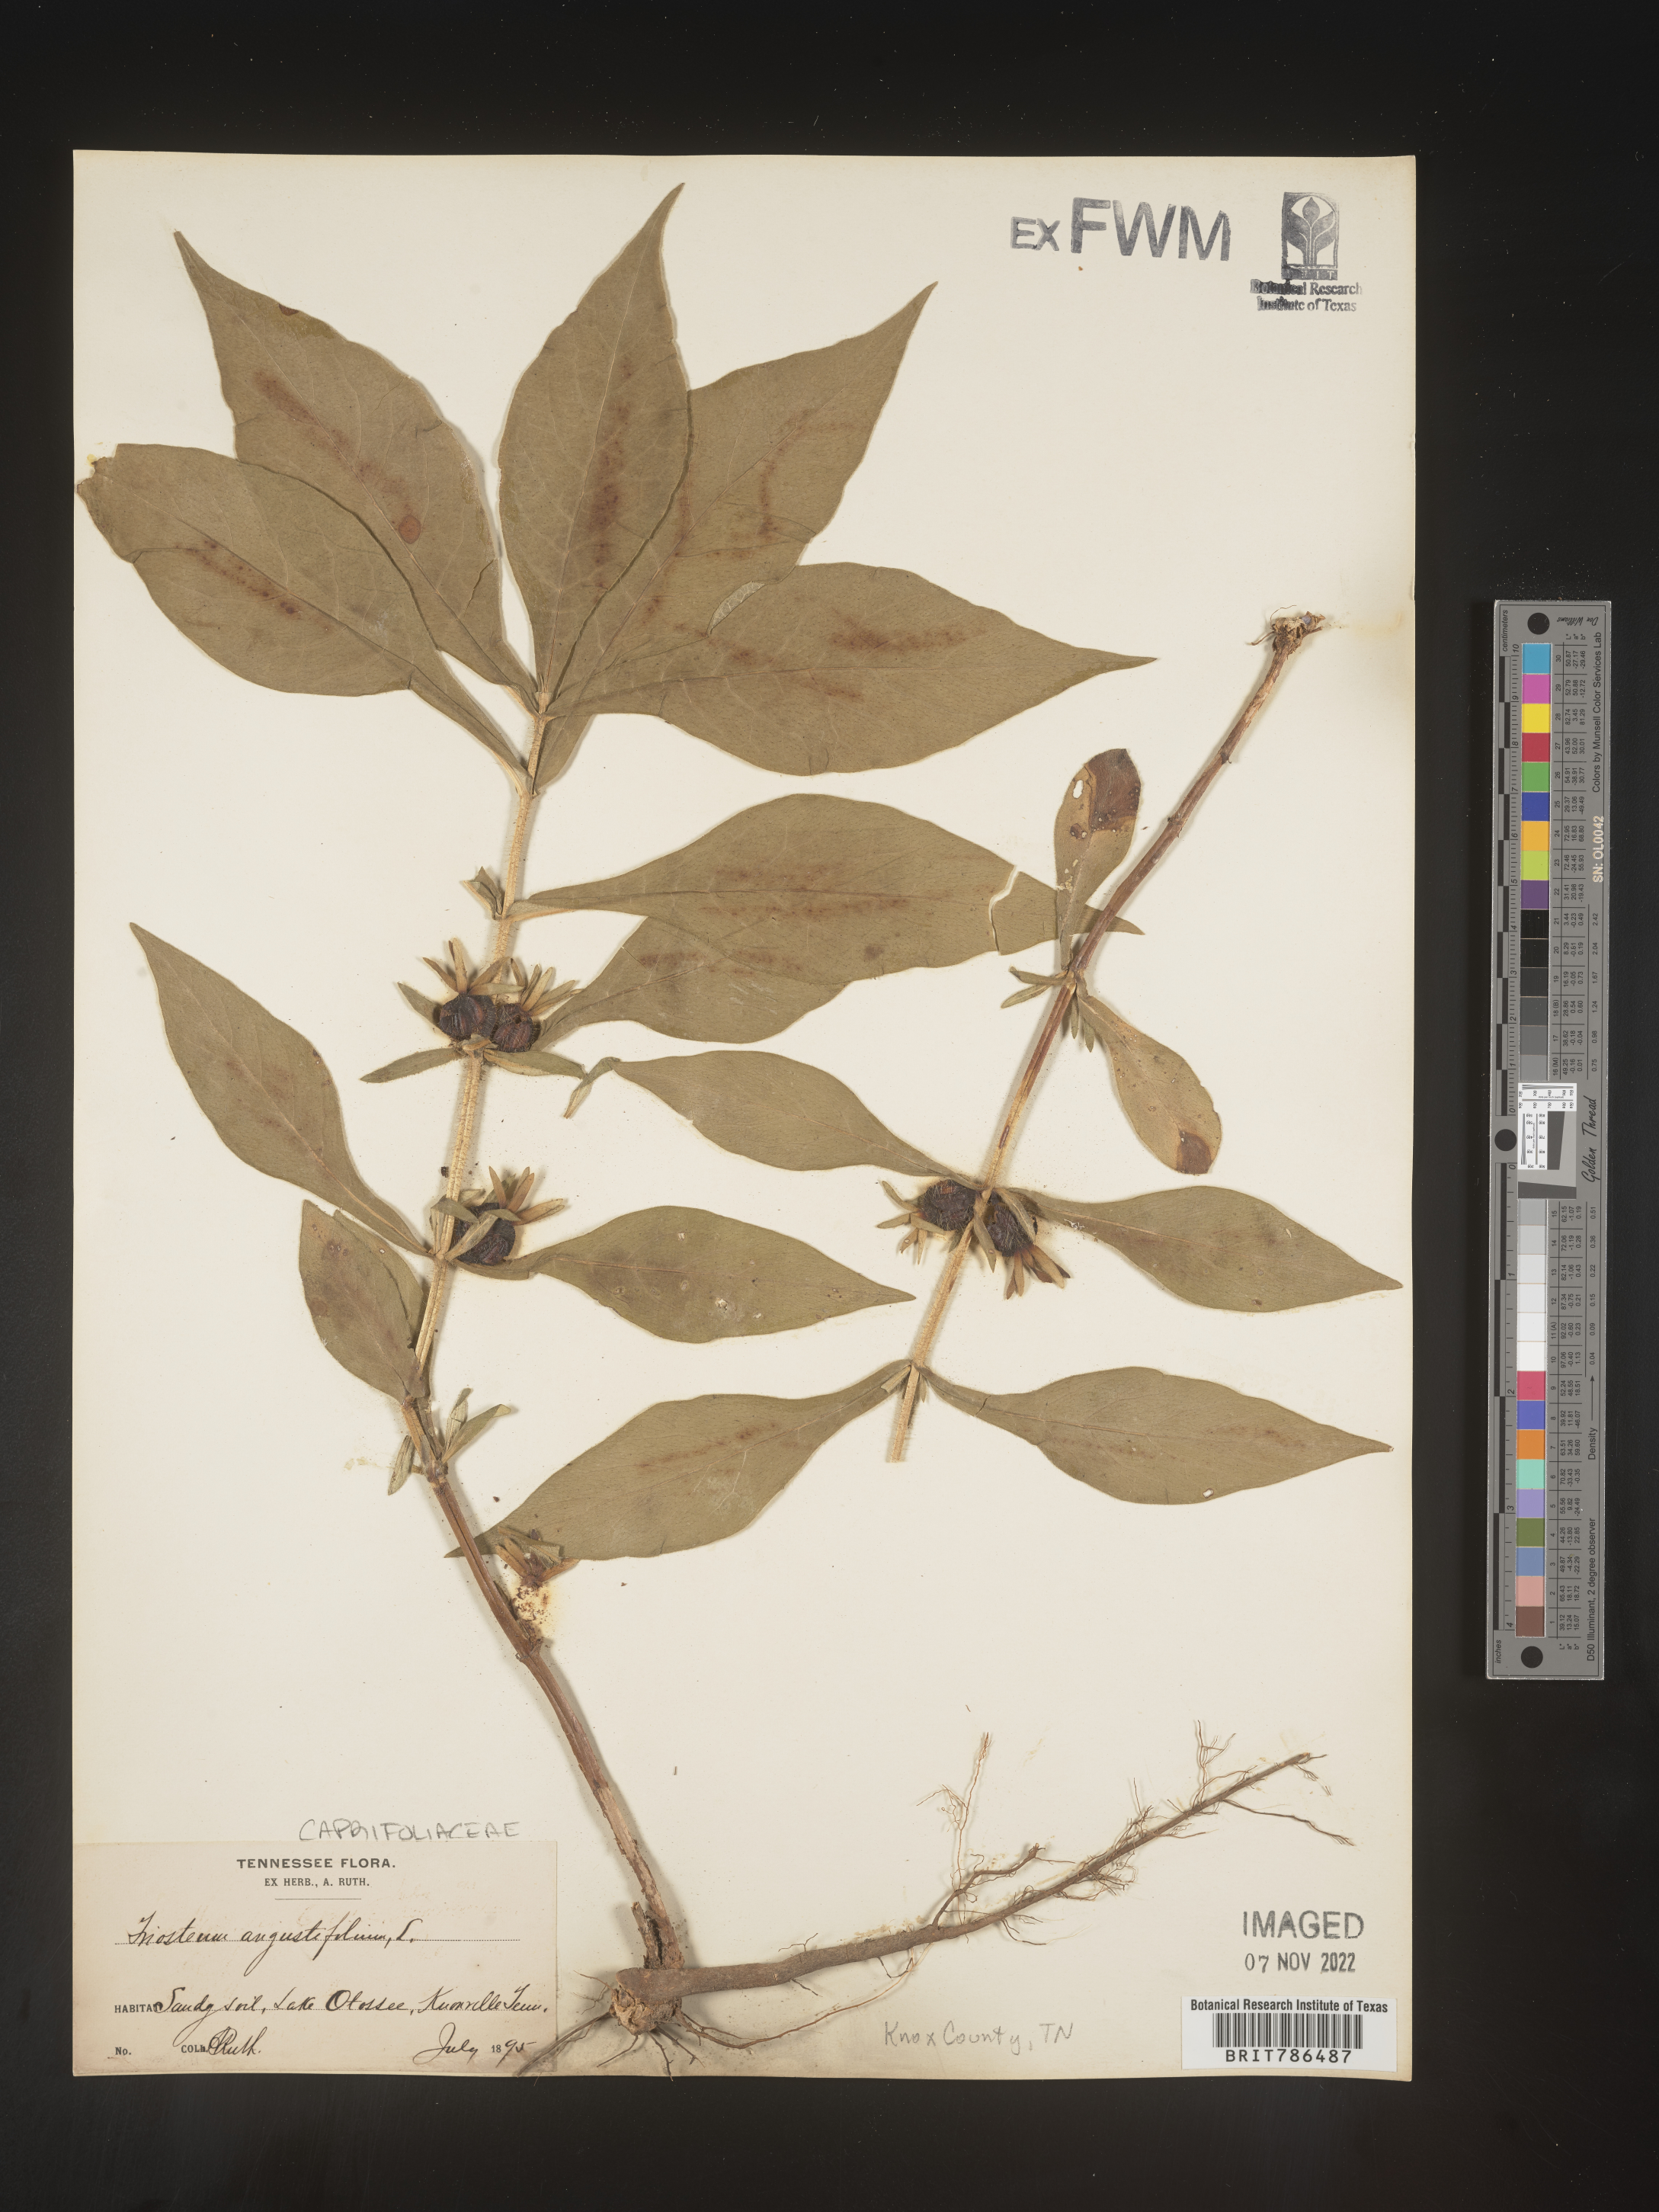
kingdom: Plantae
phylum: Tracheophyta
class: Magnoliopsida
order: Dipsacales
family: Caprifoliaceae
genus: Triosteum
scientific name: Triosteum angustifolium
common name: Narrow-leaved horse-gentian
